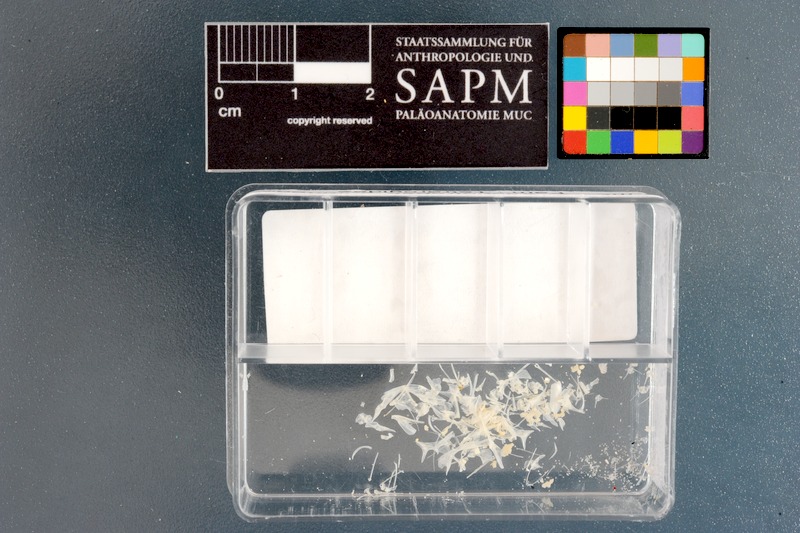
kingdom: Animalia
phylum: Chordata
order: Scorpaeniformes
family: Tetrarogidae
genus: Coccotropsis
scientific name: Coccotropsis gymnoderma
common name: Smooth-skin scorpionfish
